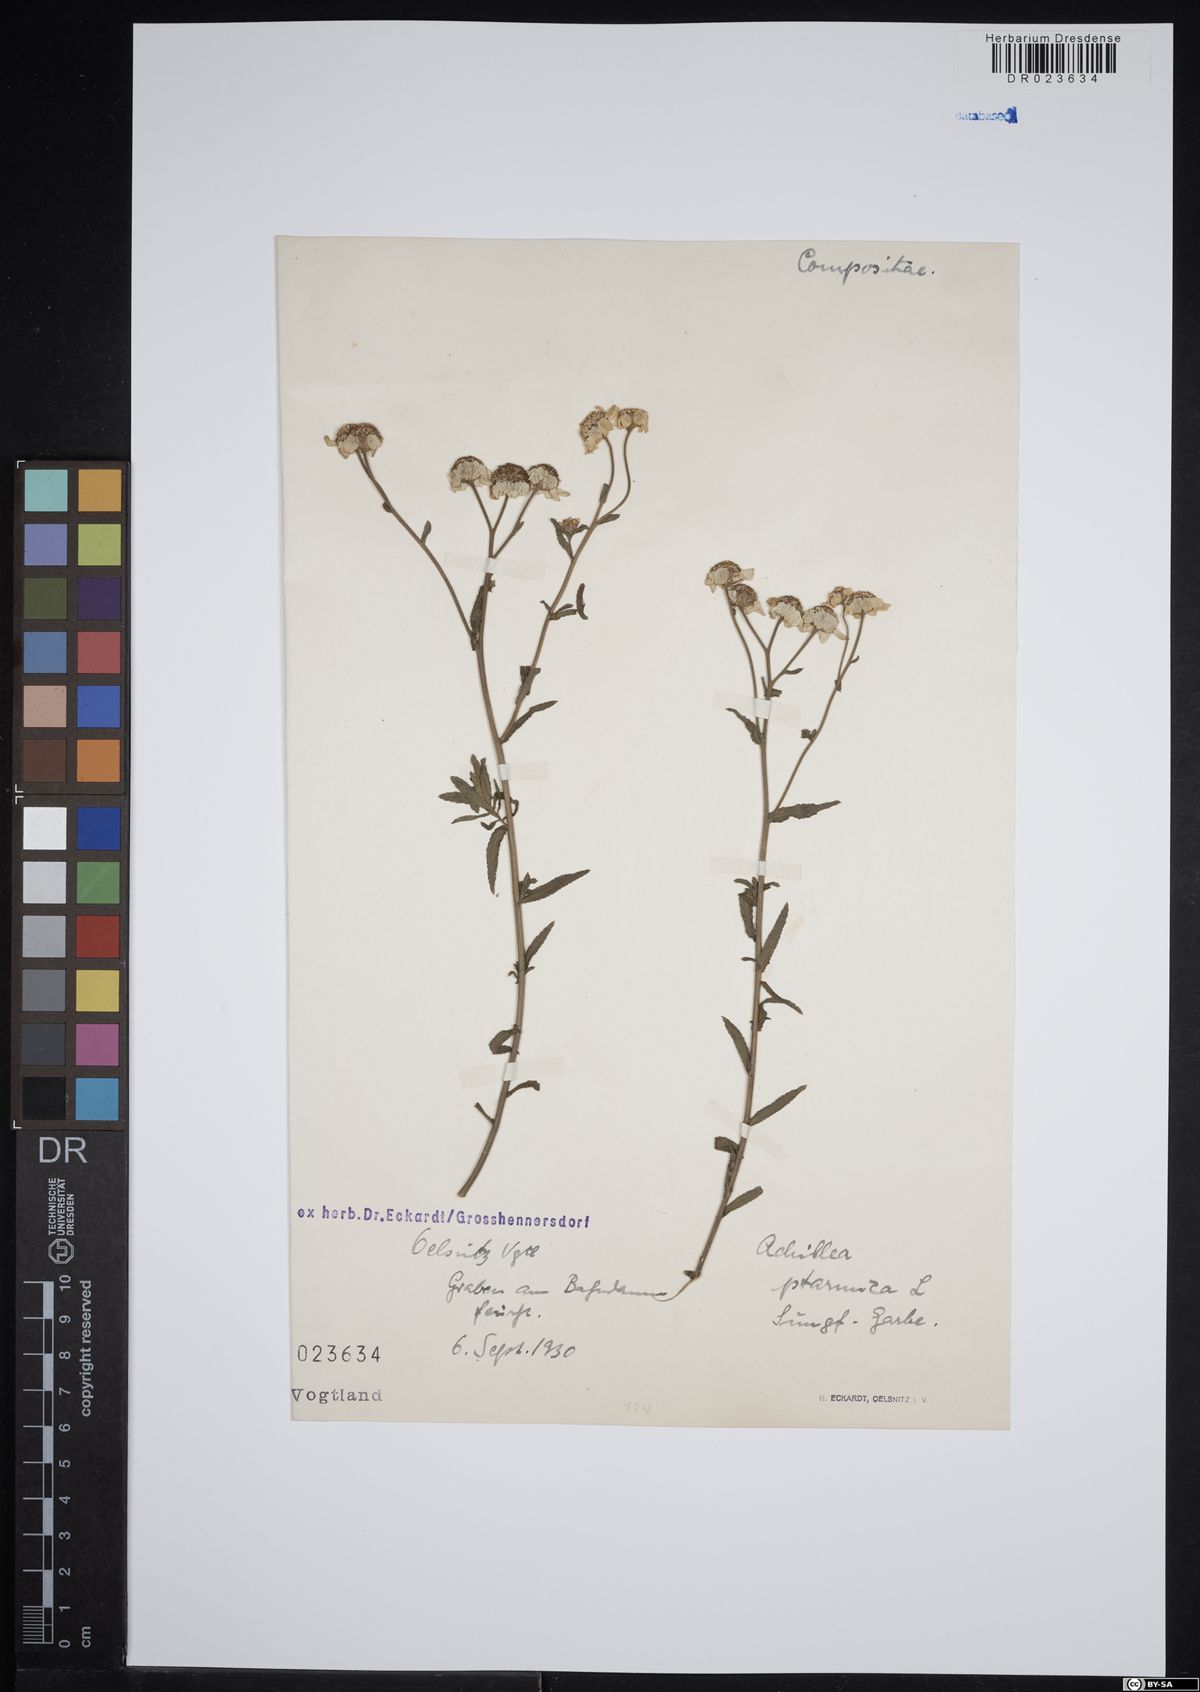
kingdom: Plantae
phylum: Tracheophyta
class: Magnoliopsida
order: Asterales
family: Asteraceae
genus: Achillea
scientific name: Achillea ptarmica
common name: Sneezeweed
